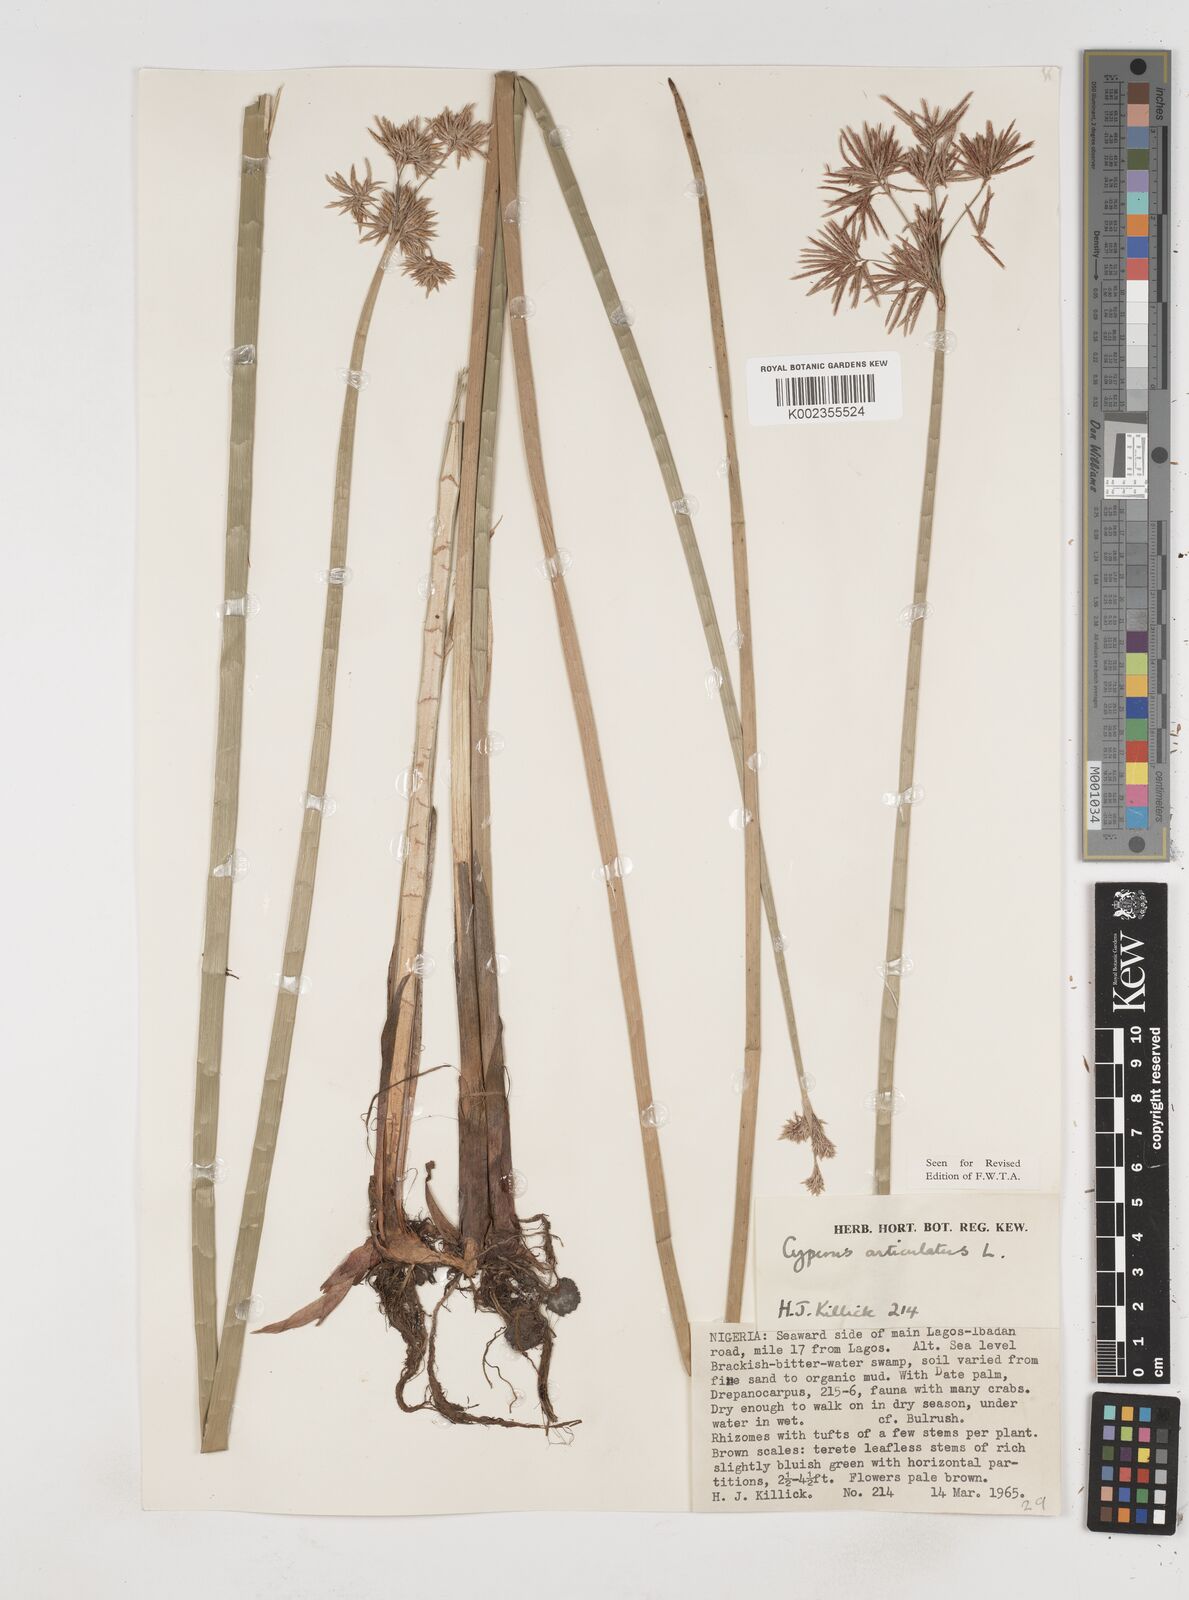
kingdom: Plantae
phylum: Tracheophyta
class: Liliopsida
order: Poales
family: Cyperaceae
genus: Cyperus
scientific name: Cyperus articulatus
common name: Jointed flatsedge
